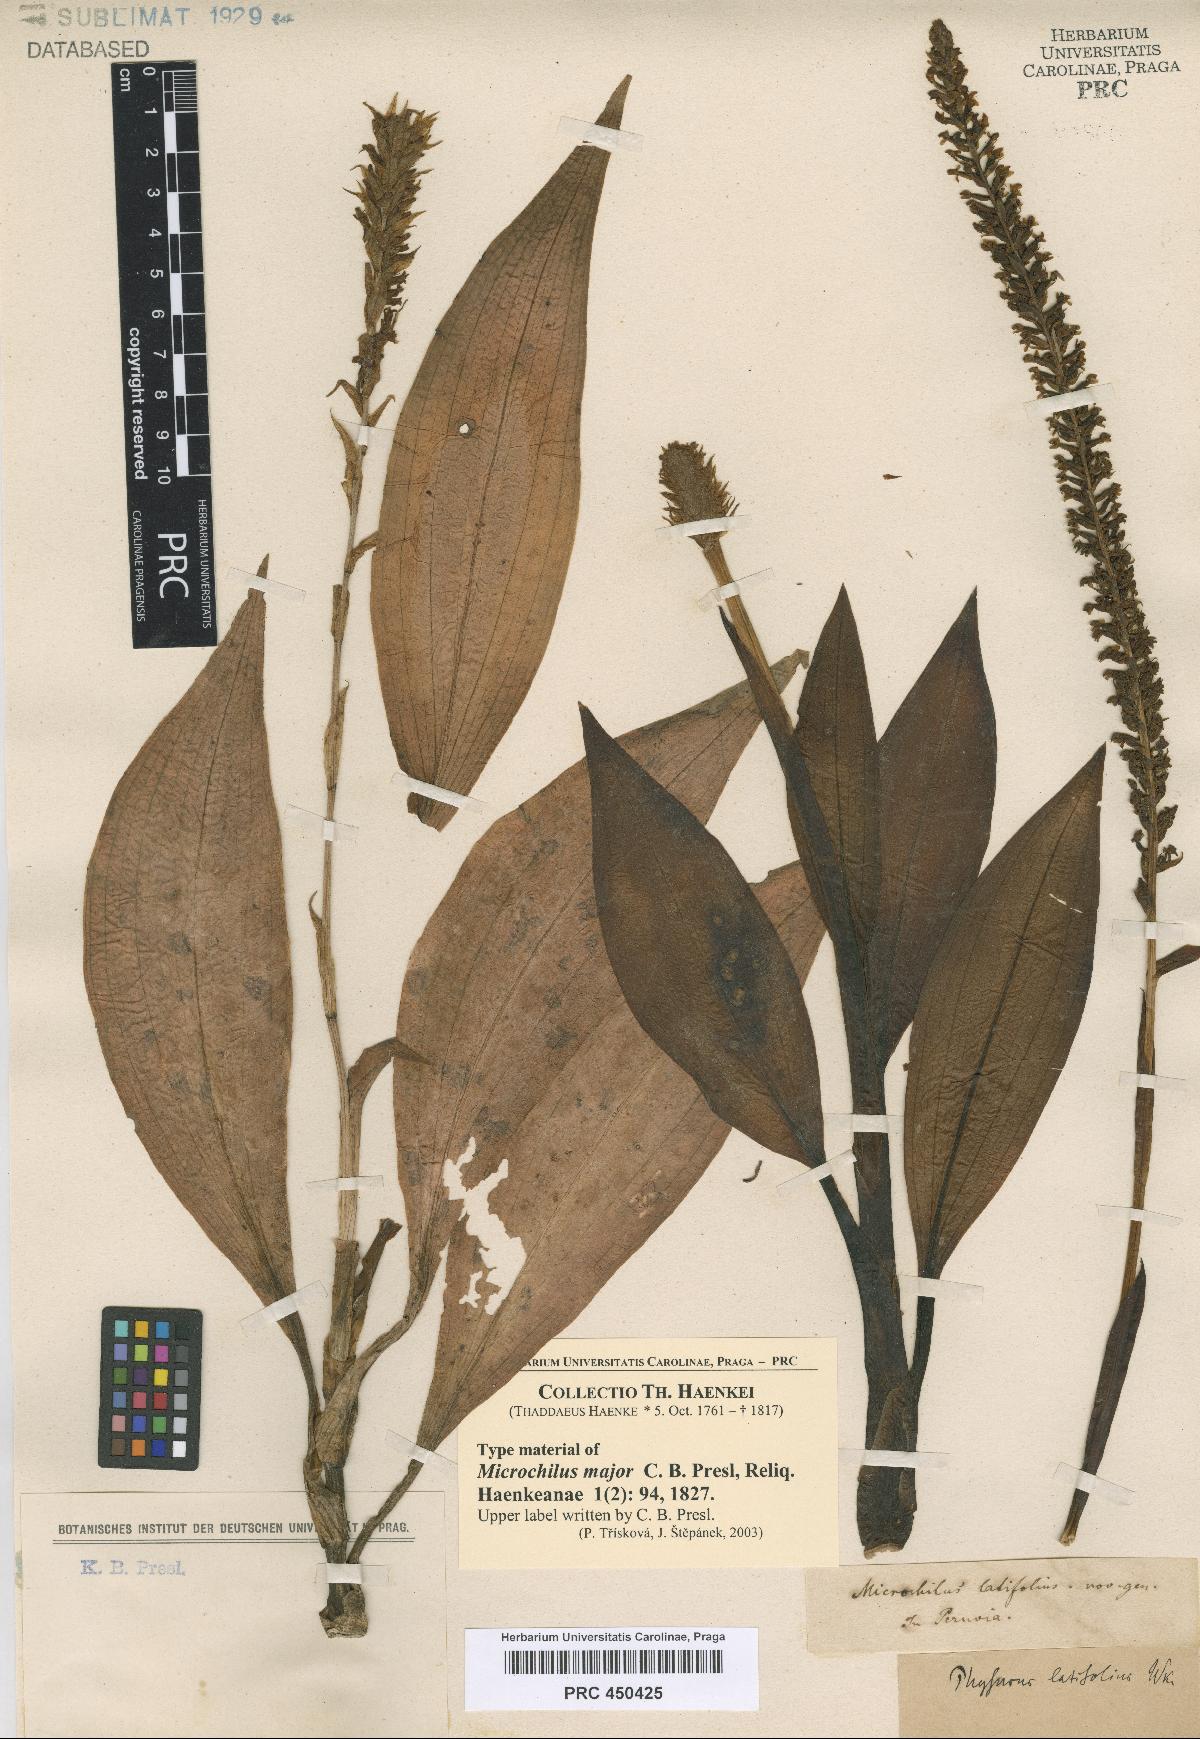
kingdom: Plantae
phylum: Tracheophyta
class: Liliopsida
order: Asparagales
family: Orchidaceae
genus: Microchilus
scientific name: Microchilus major
